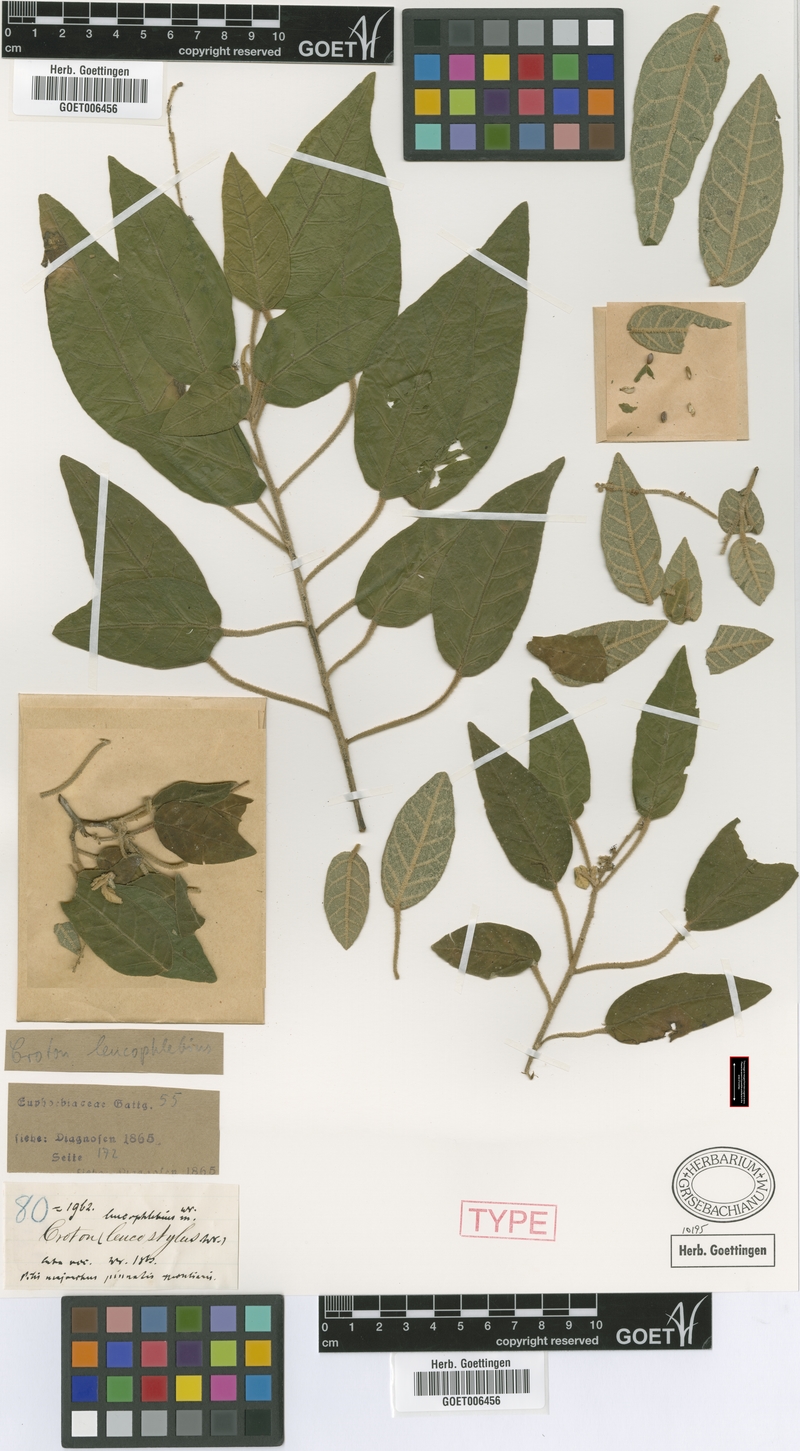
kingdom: Plantae
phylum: Tracheophyta
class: Magnoliopsida
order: Malpighiales
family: Euphorbiaceae
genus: Croton
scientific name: Croton leucophlebius
